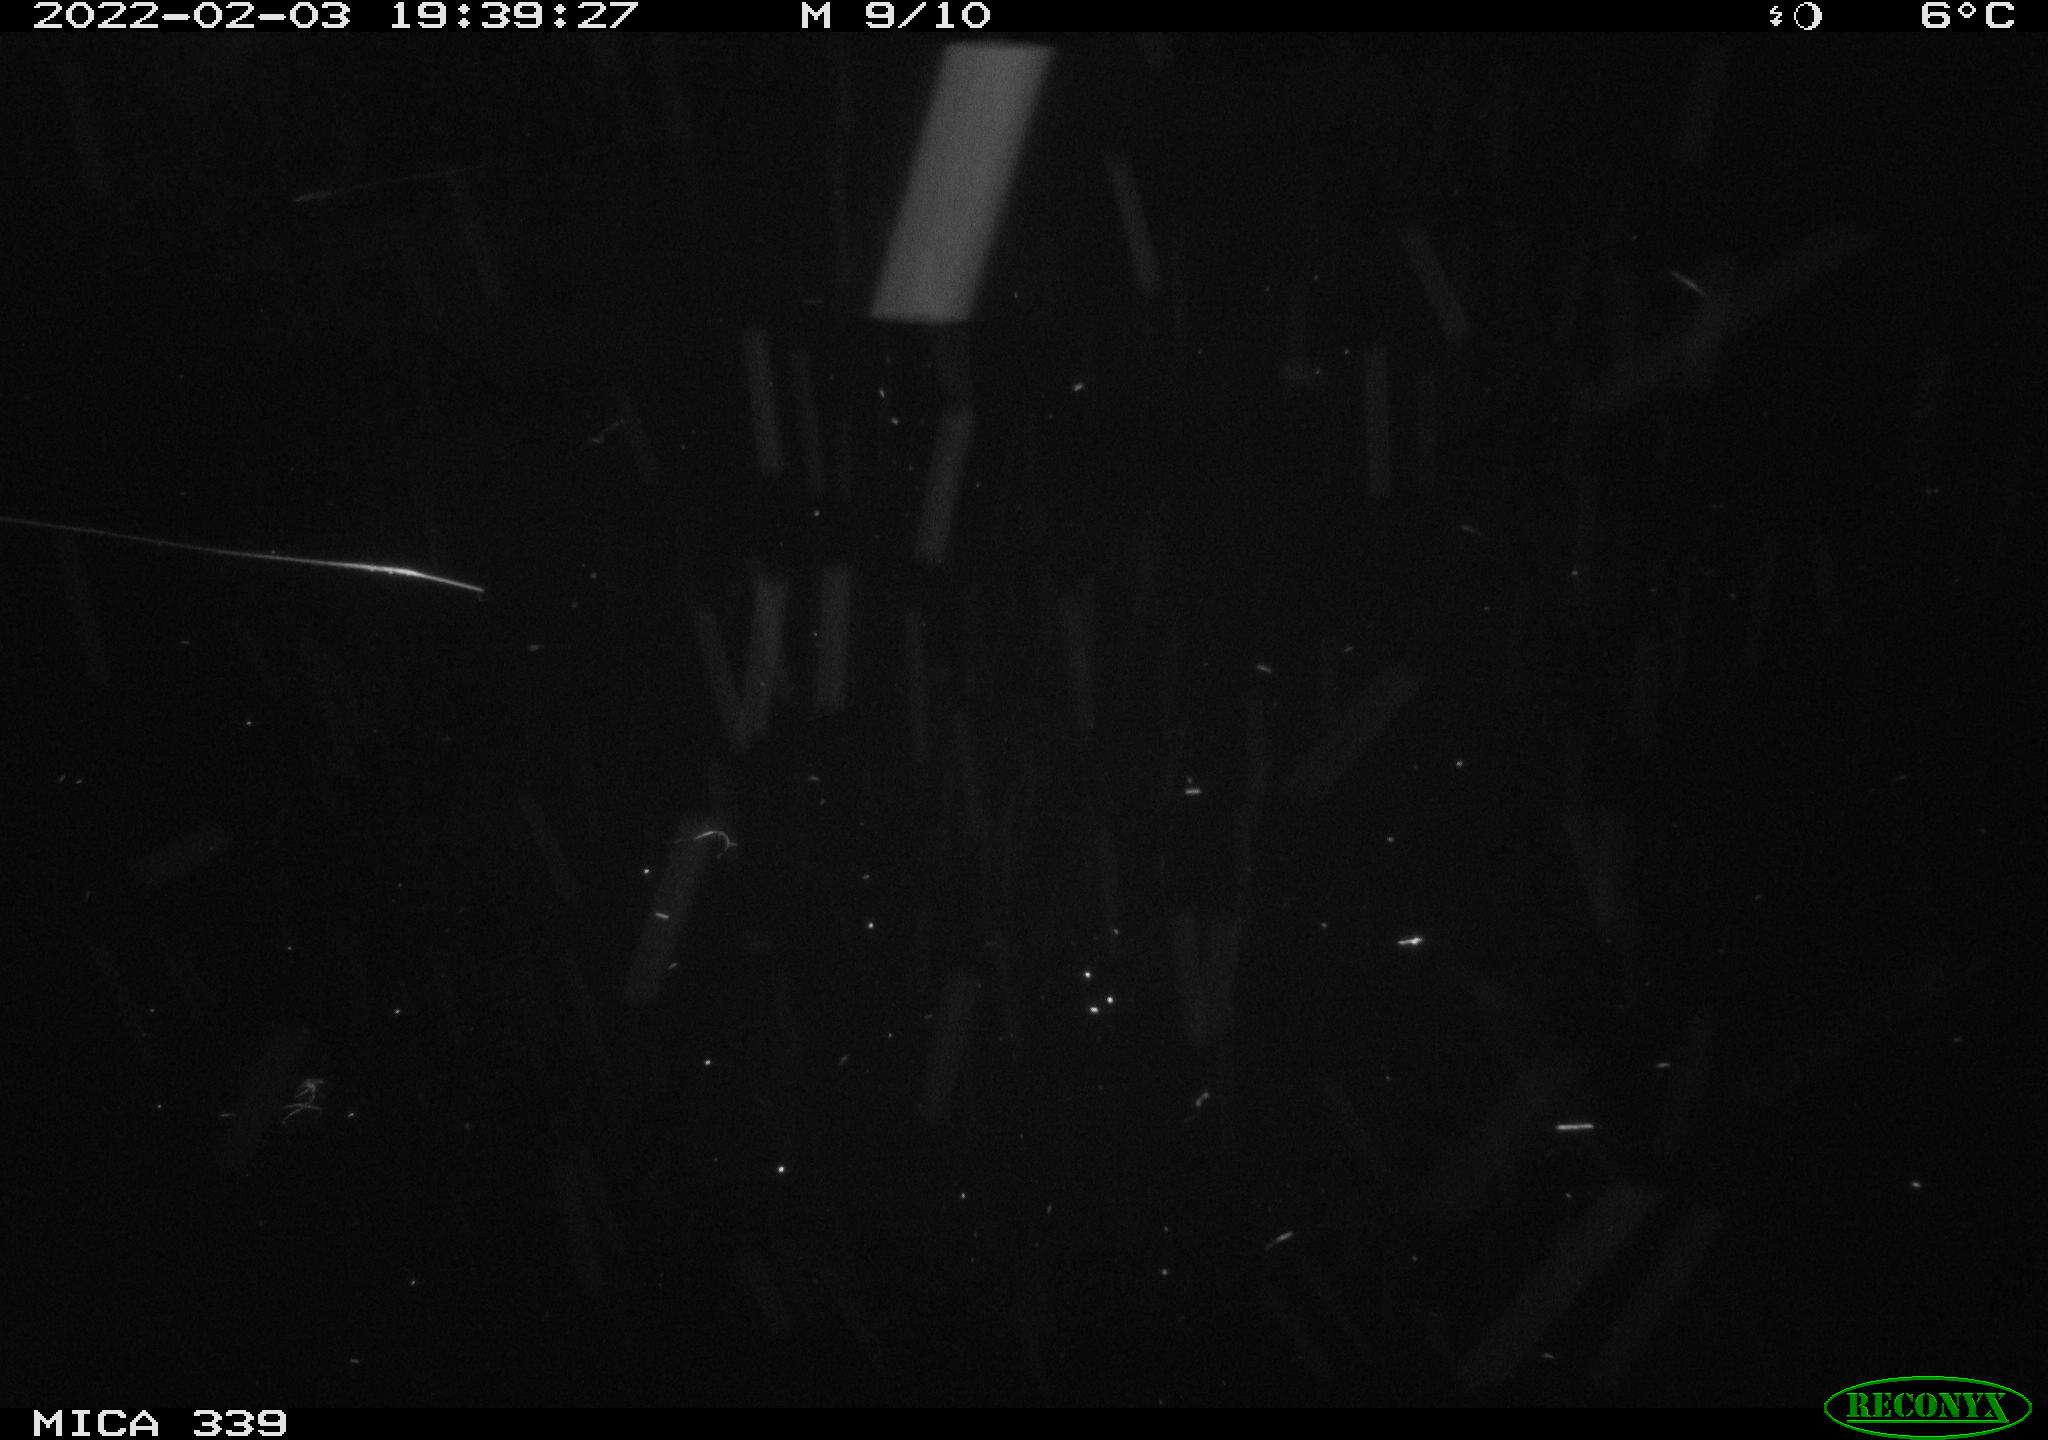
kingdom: Animalia
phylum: Chordata
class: Mammalia
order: Rodentia
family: Muridae
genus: Rattus
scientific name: Rattus norvegicus
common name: Brown rat
